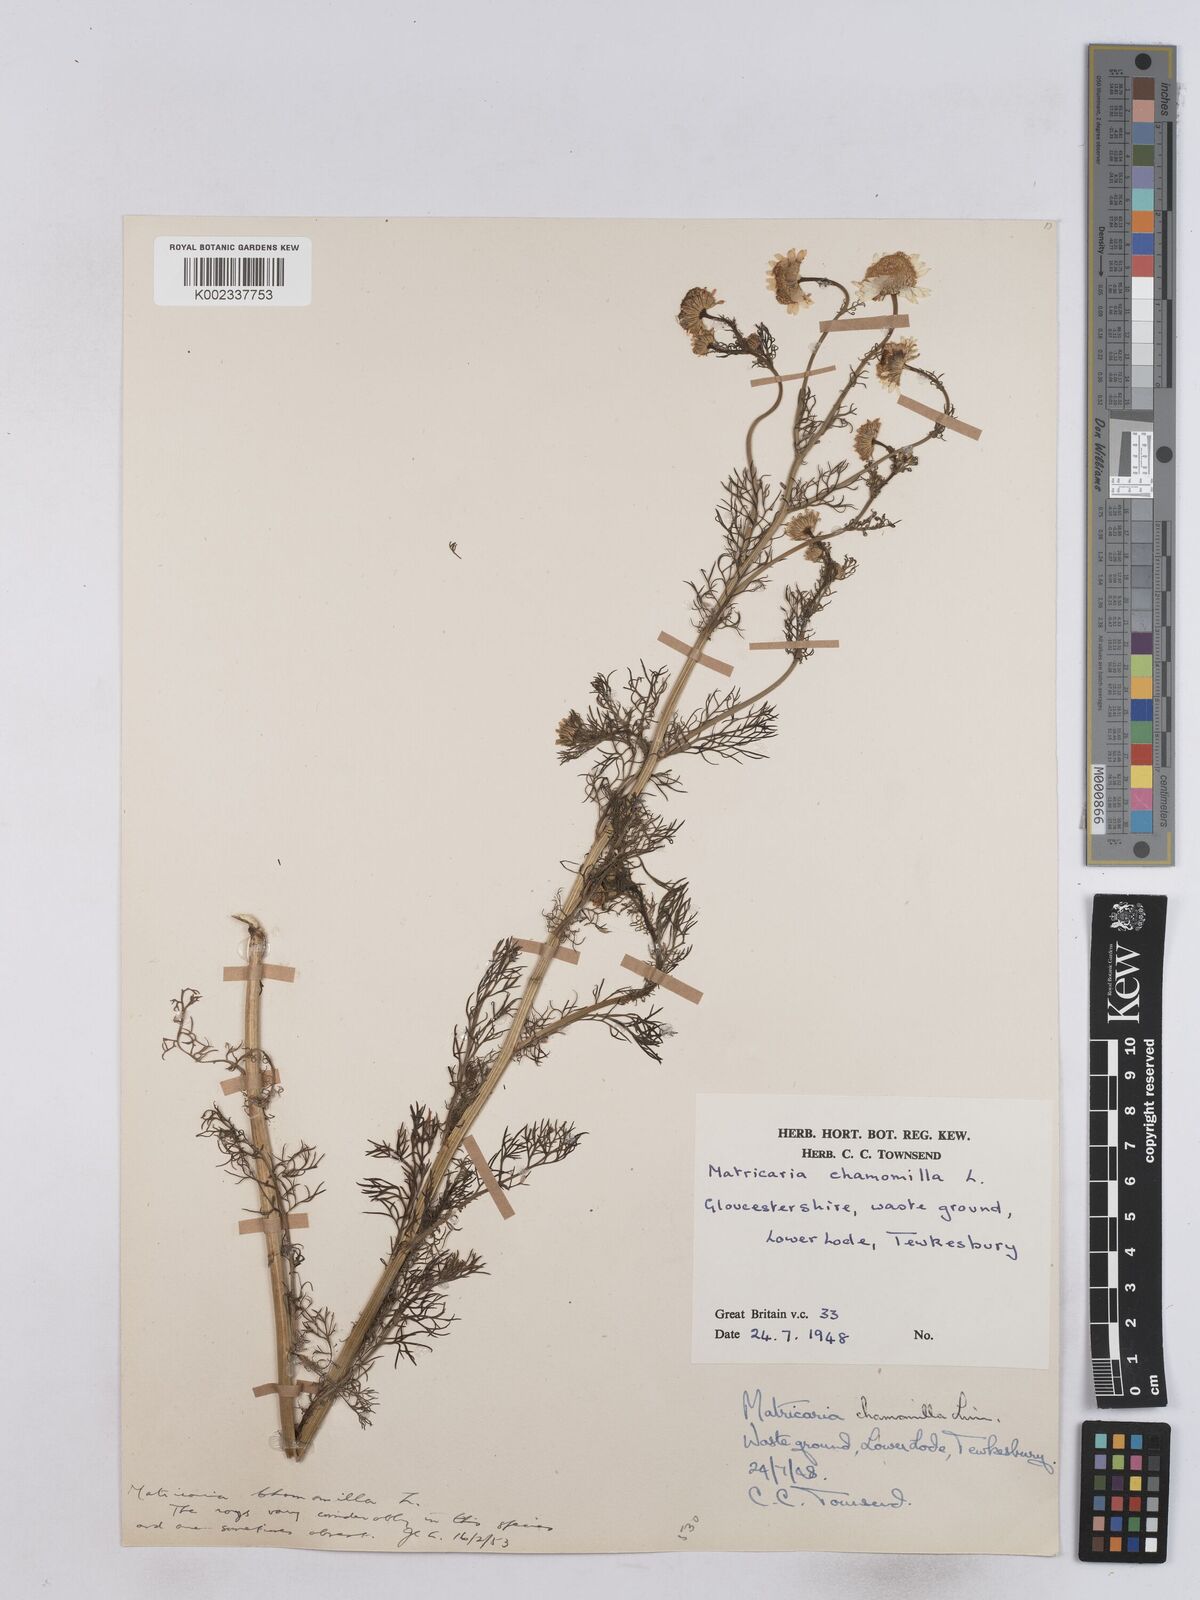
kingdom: Plantae
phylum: Tracheophyta
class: Magnoliopsida
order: Asterales
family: Asteraceae
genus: Matricaria
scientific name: Matricaria chamomilla
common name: Scented mayweed
